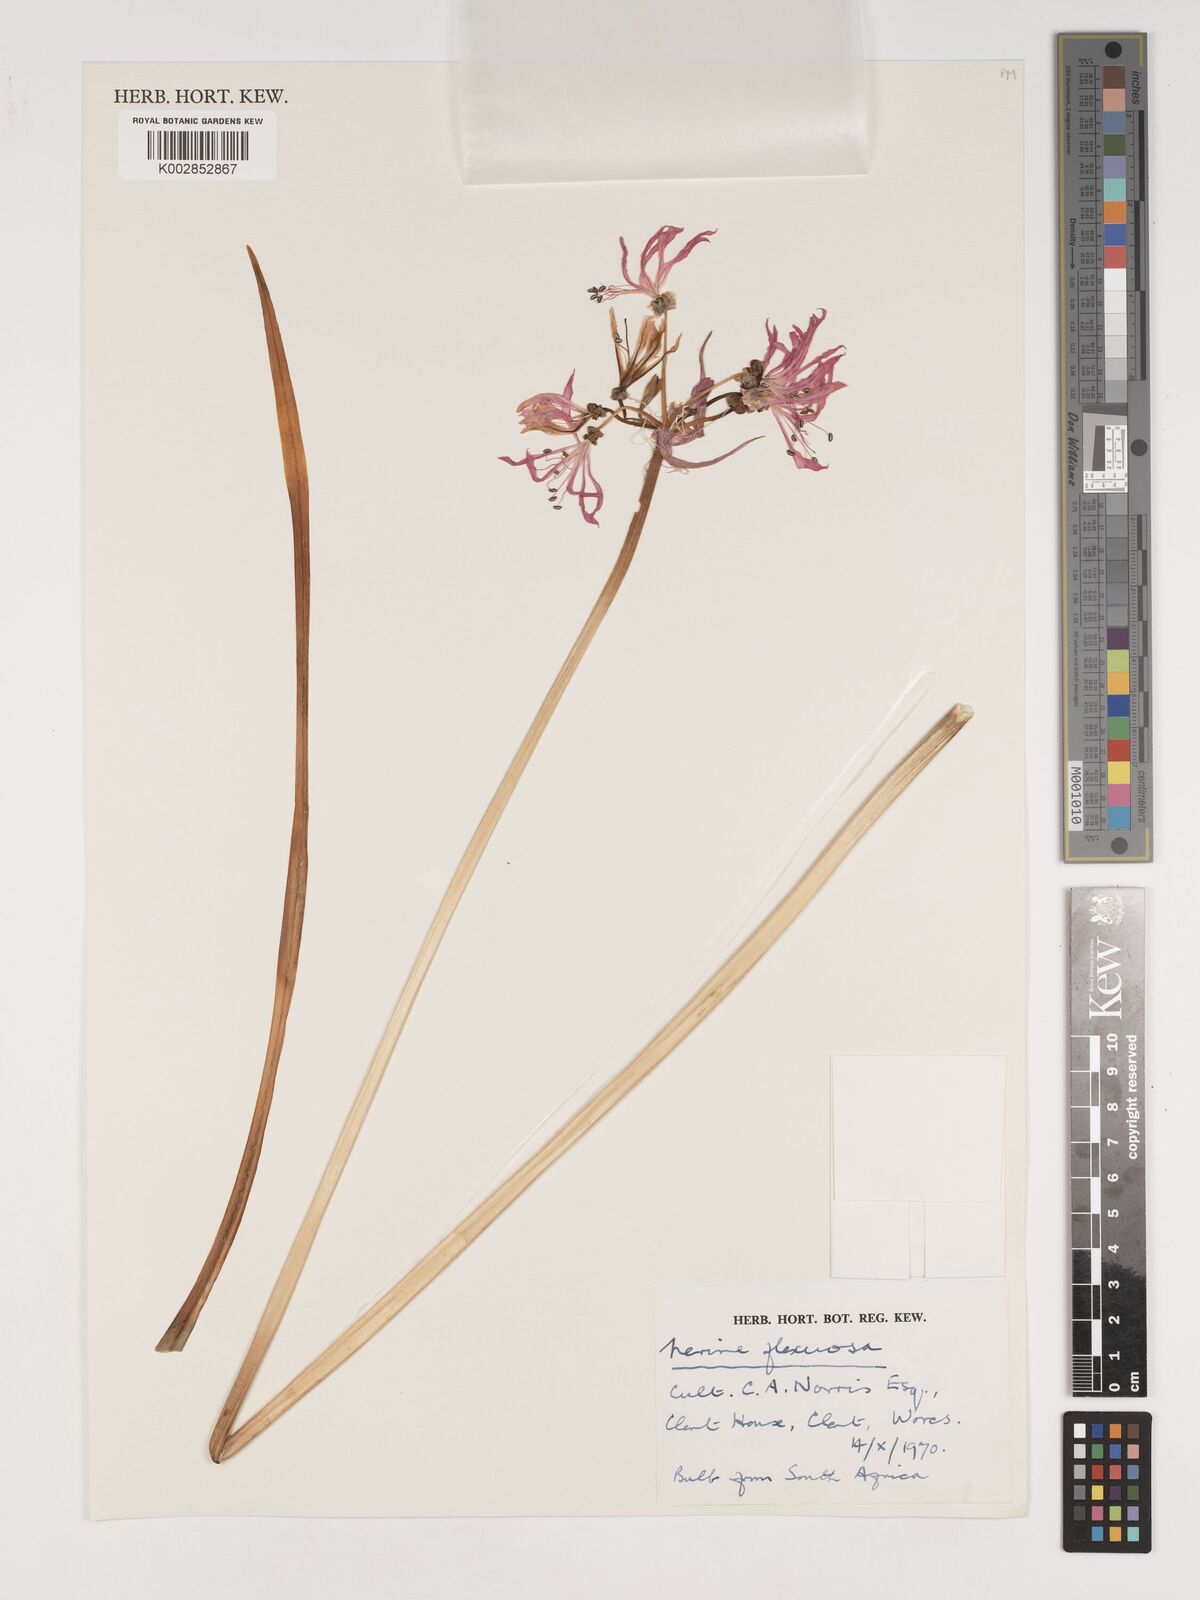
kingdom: Plantae
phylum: Tracheophyta
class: Liliopsida
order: Asparagales
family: Amaryllidaceae
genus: Nerine
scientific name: Nerine undulata
